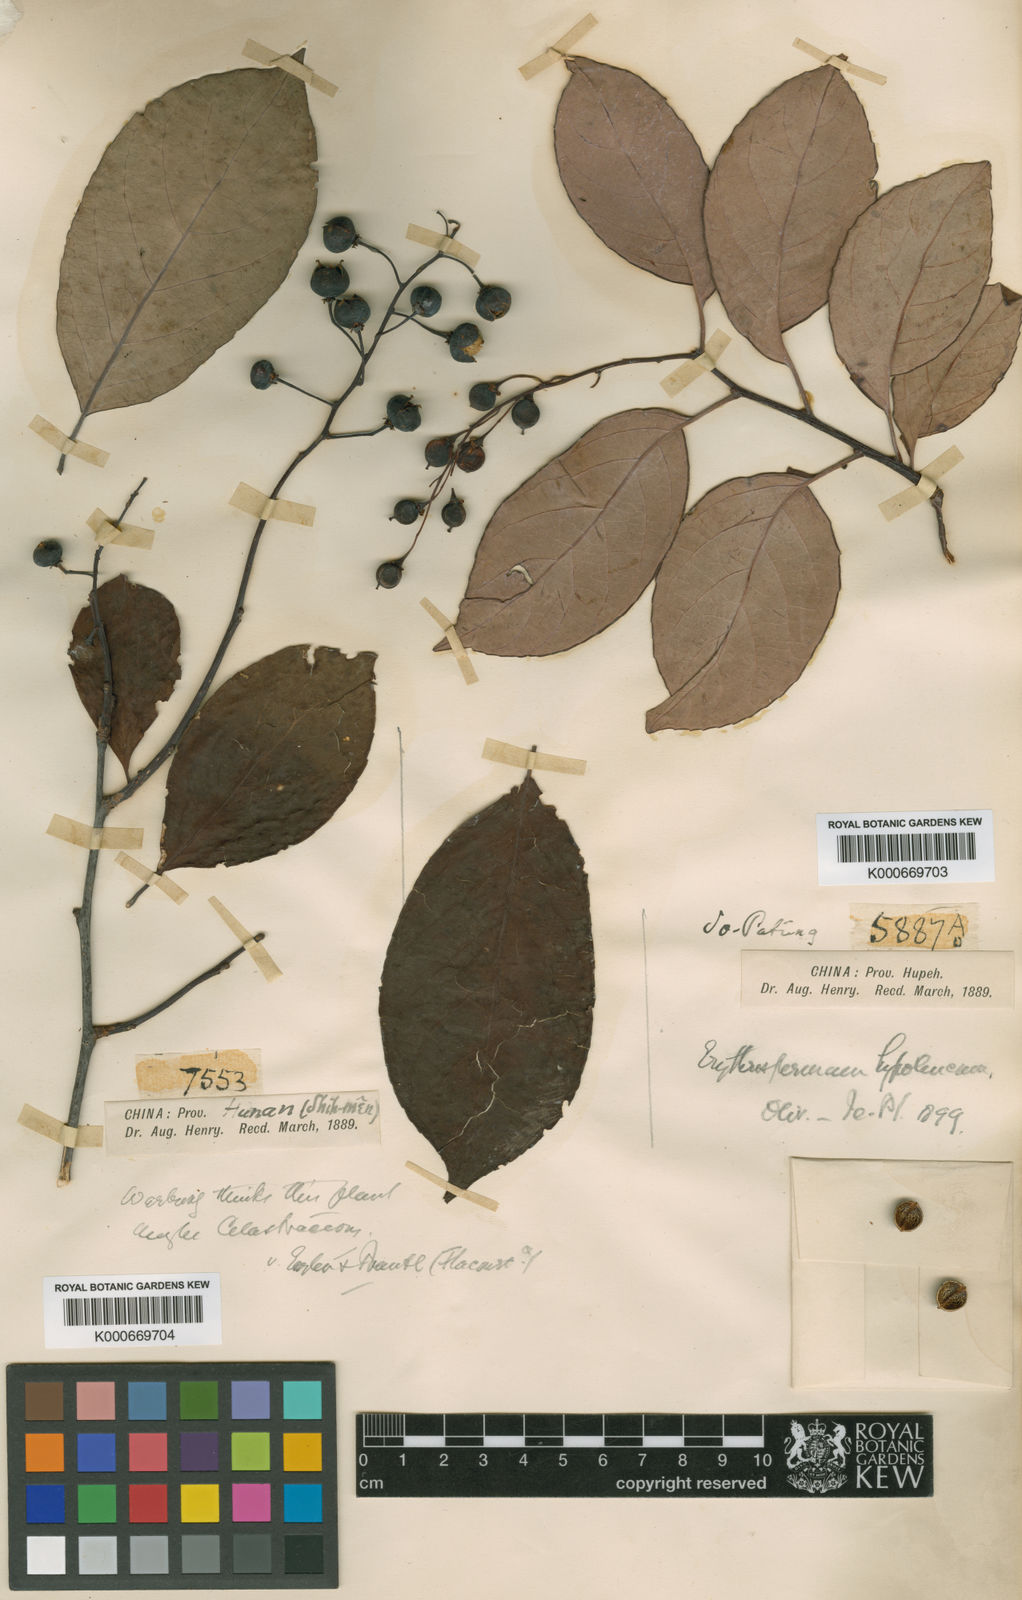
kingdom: Plantae
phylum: Tracheophyta
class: Magnoliopsida
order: Celastrales
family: Celastraceae
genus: Celastrus
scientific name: Celastrus hypoleucus
